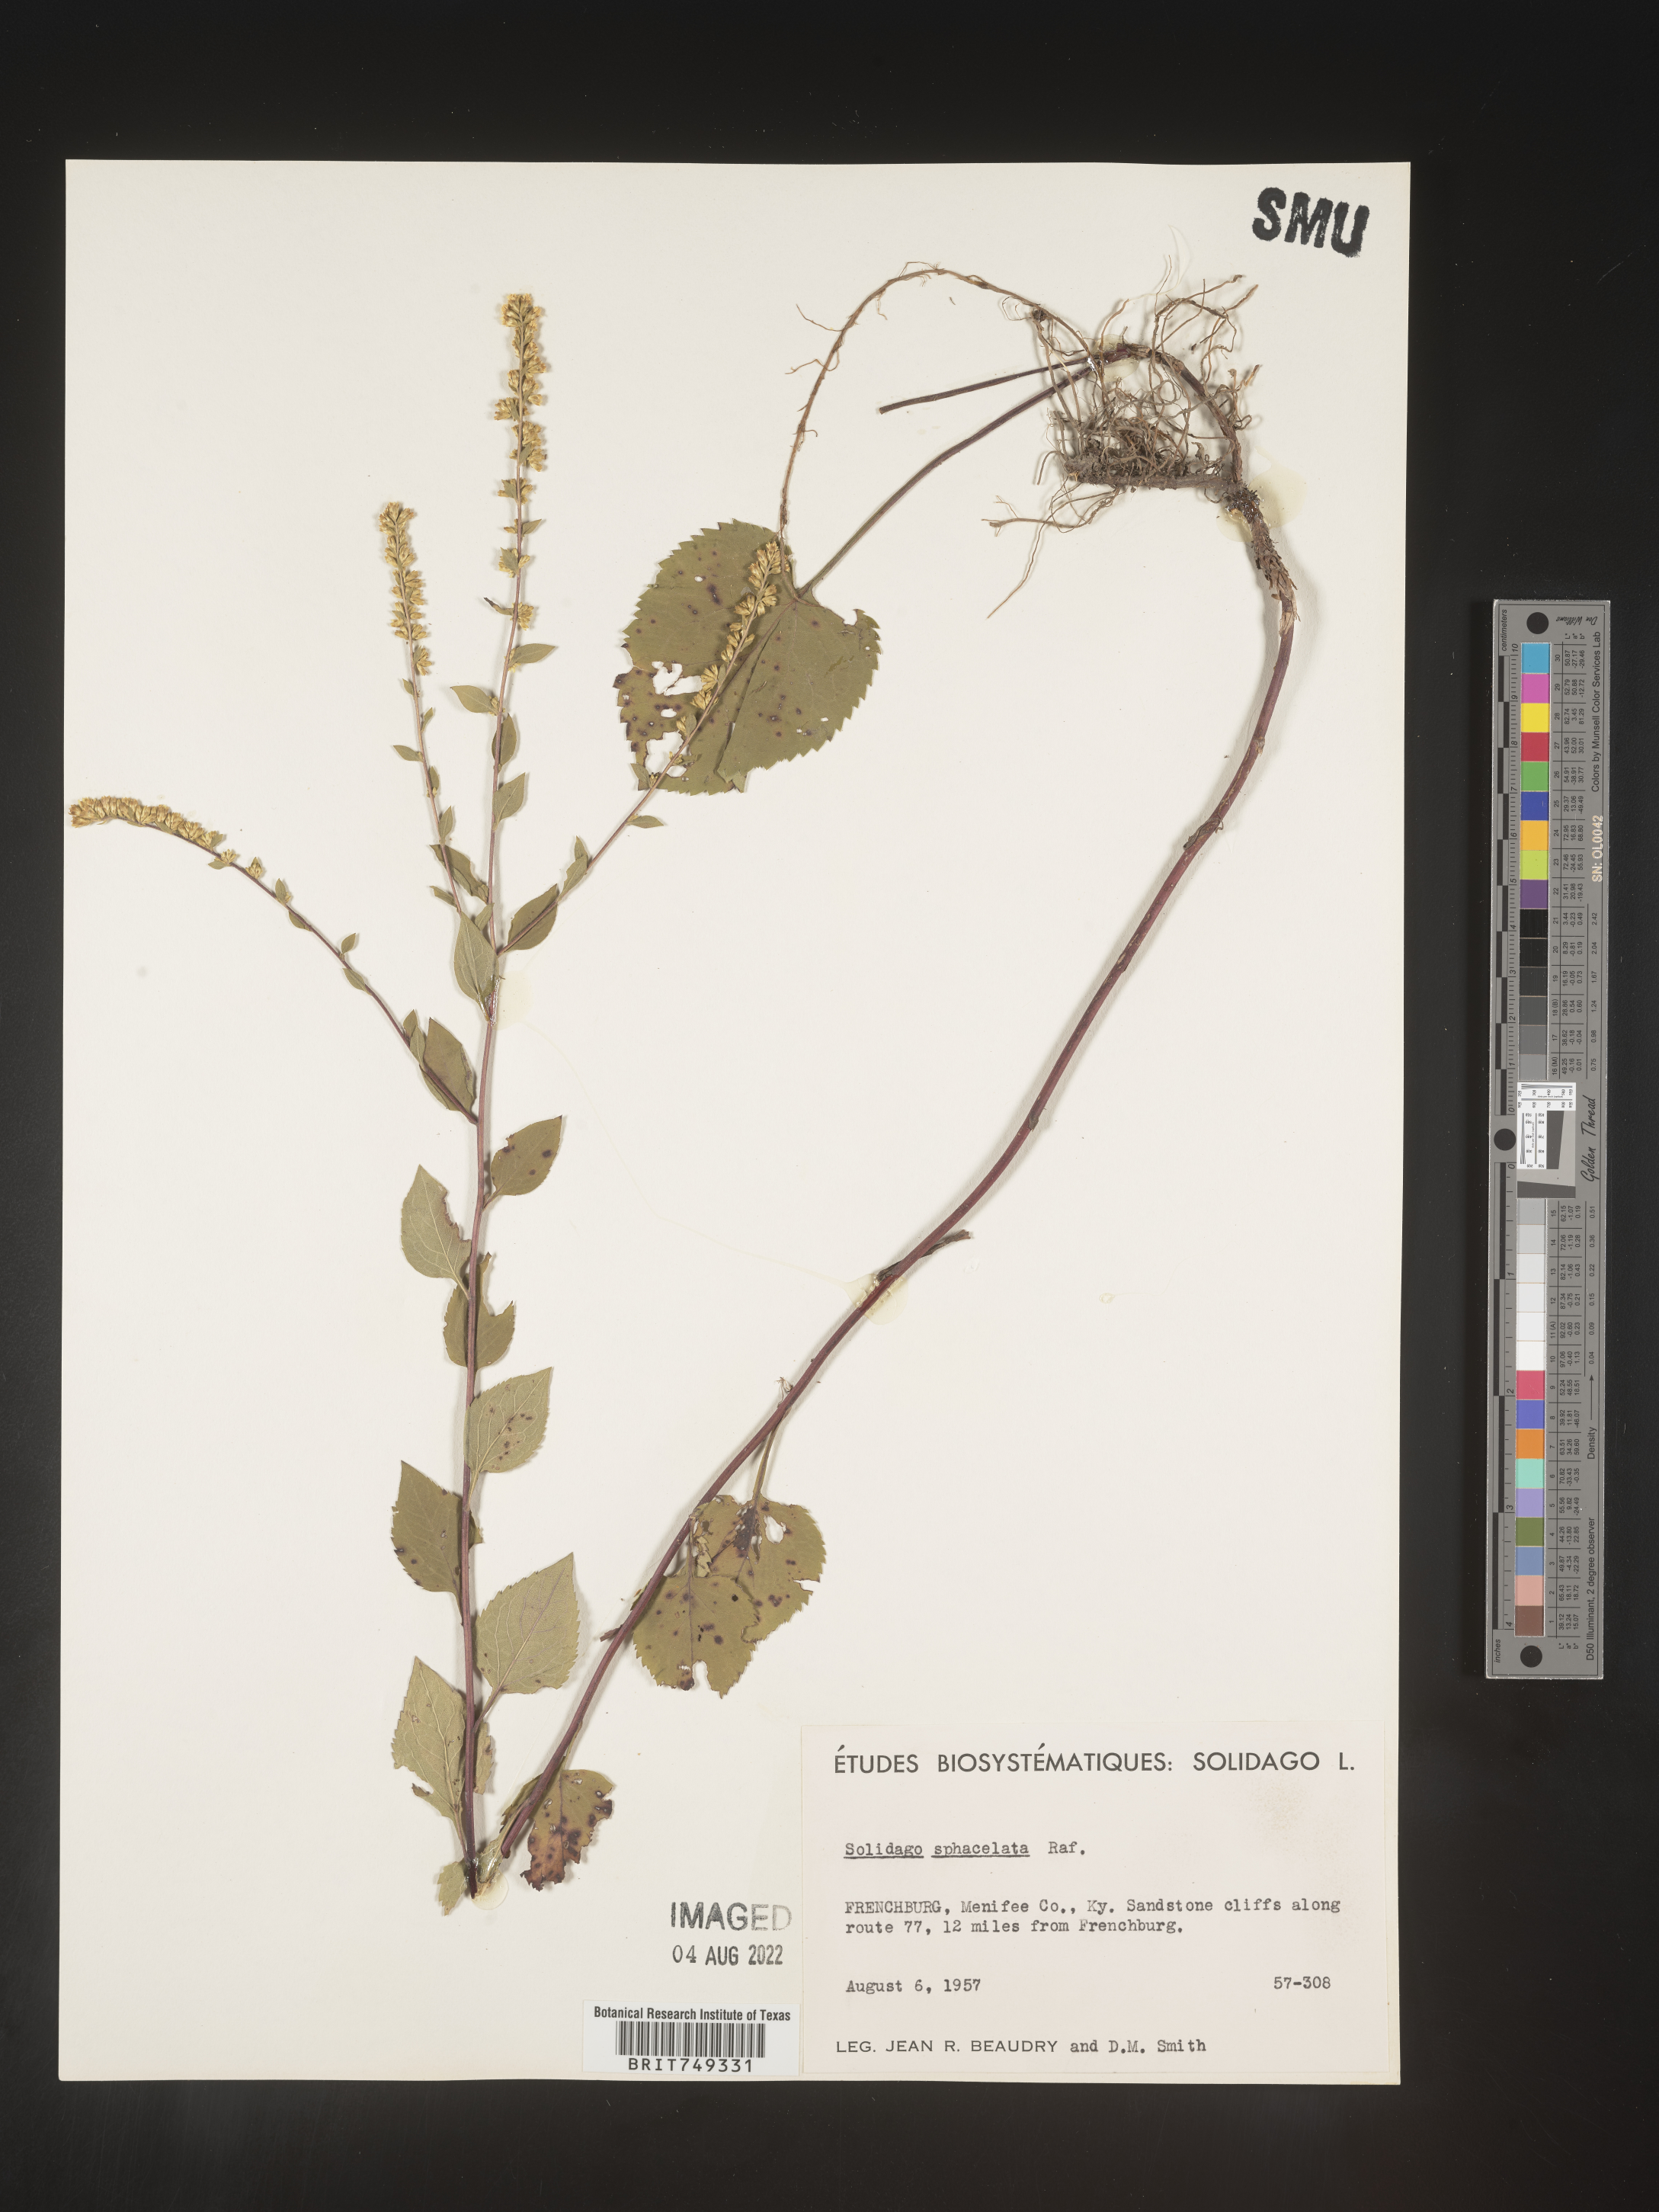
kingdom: Plantae
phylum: Tracheophyta
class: Magnoliopsida
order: Asterales
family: Asteraceae
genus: Solidago
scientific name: Solidago sphacelata
